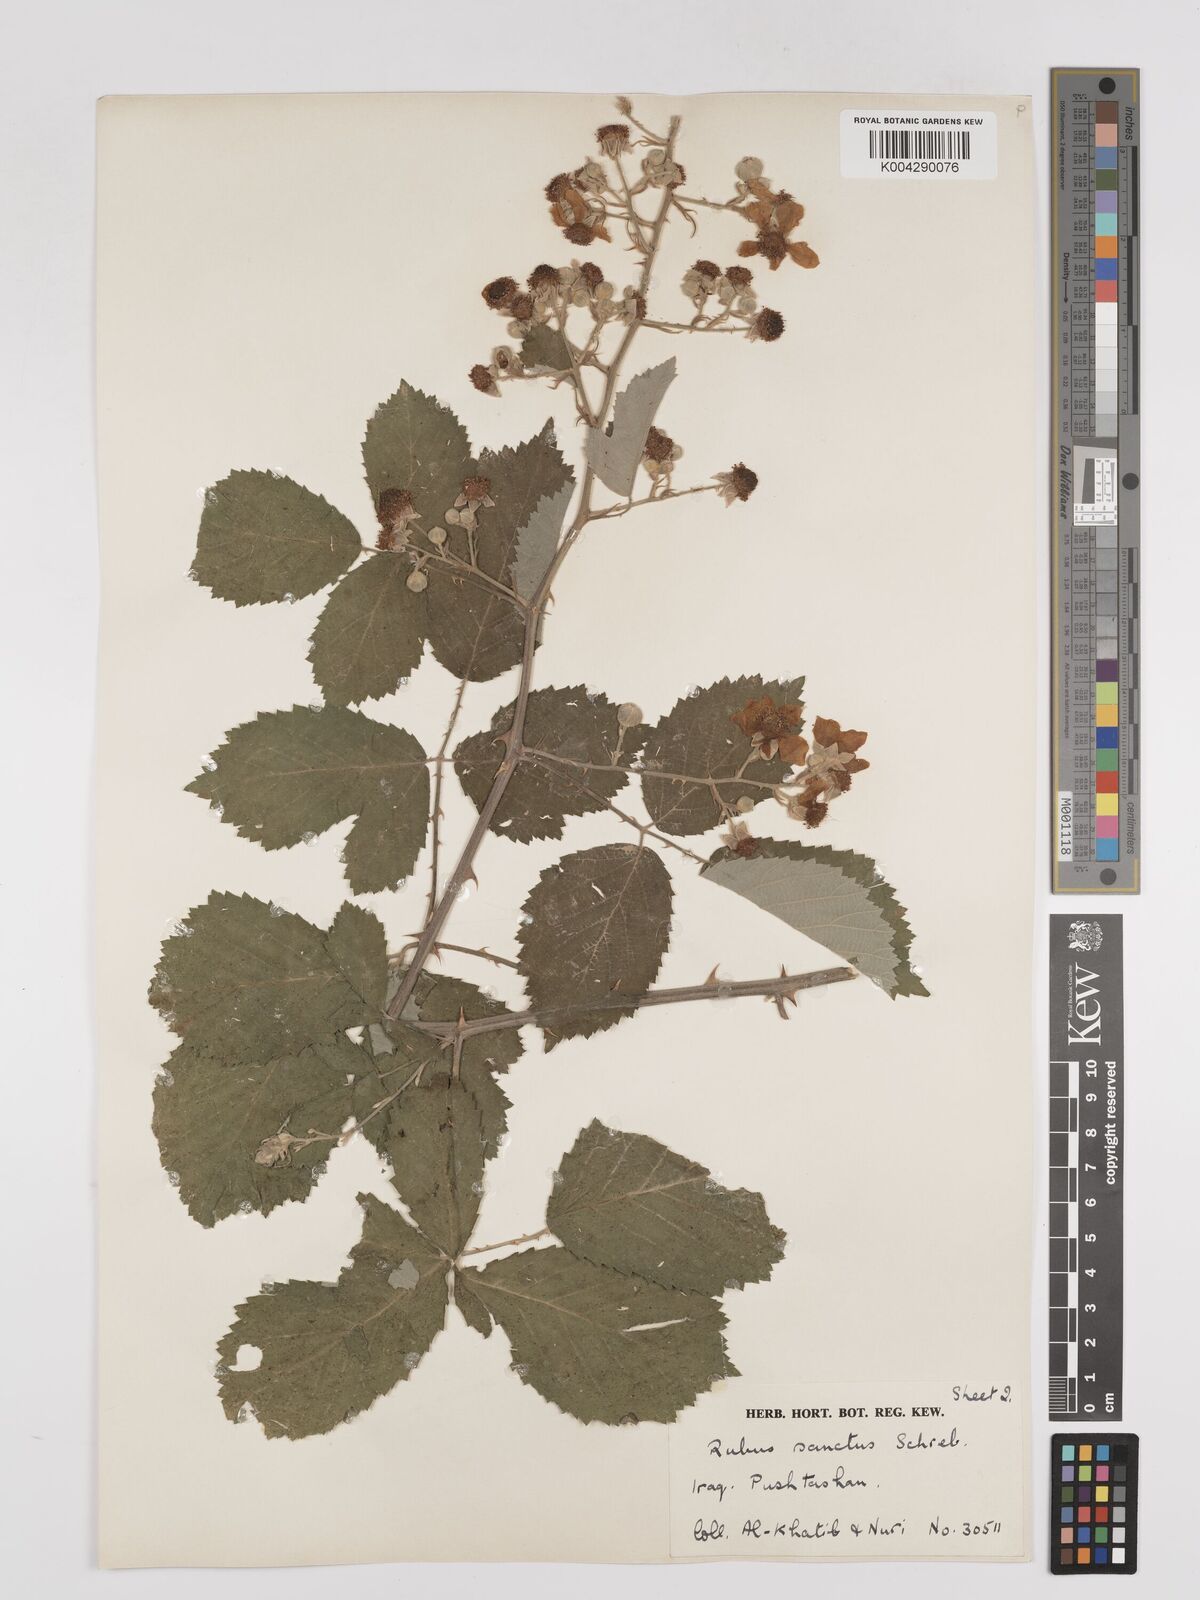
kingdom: Plantae
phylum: Tracheophyta
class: Magnoliopsida
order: Rosales
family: Rosaceae
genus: Rubus
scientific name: Rubus sanctus
